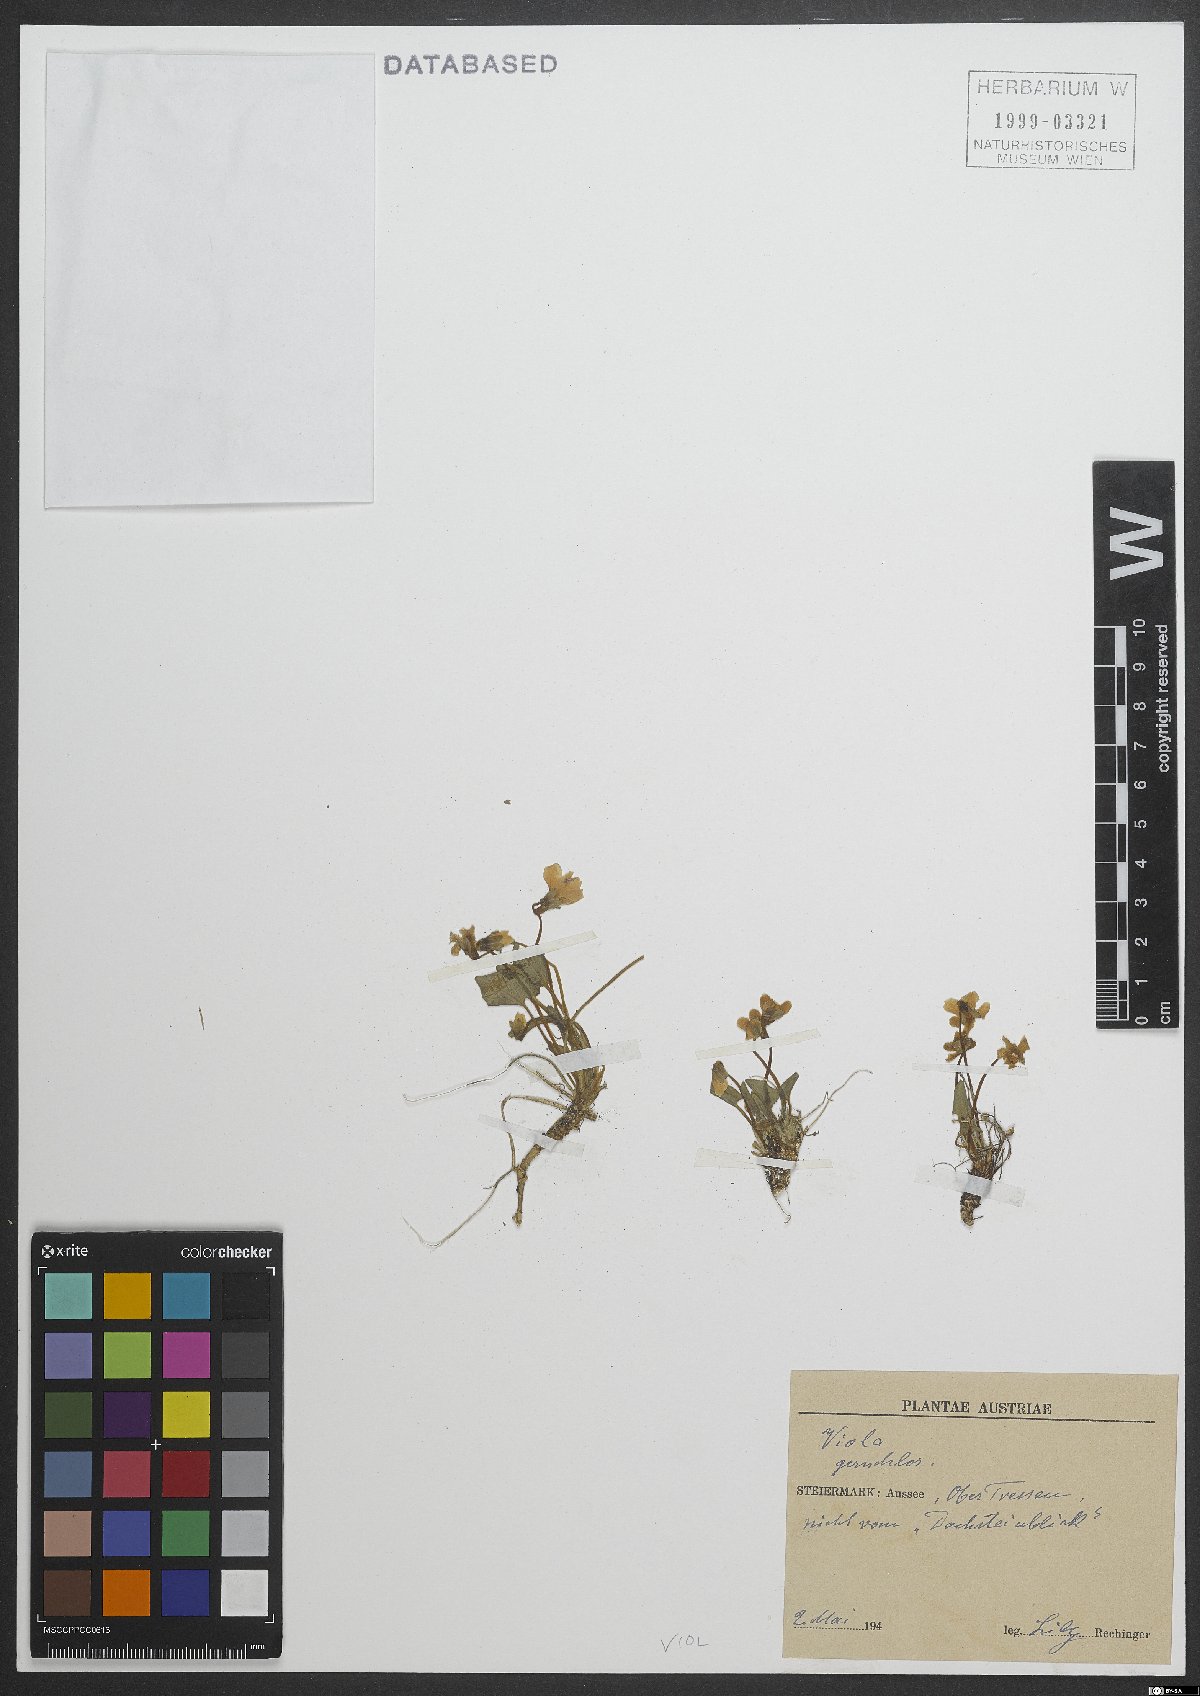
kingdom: Plantae
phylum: Tracheophyta
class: Magnoliopsida
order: Malpighiales
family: Violaceae
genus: Viola
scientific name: Viola
